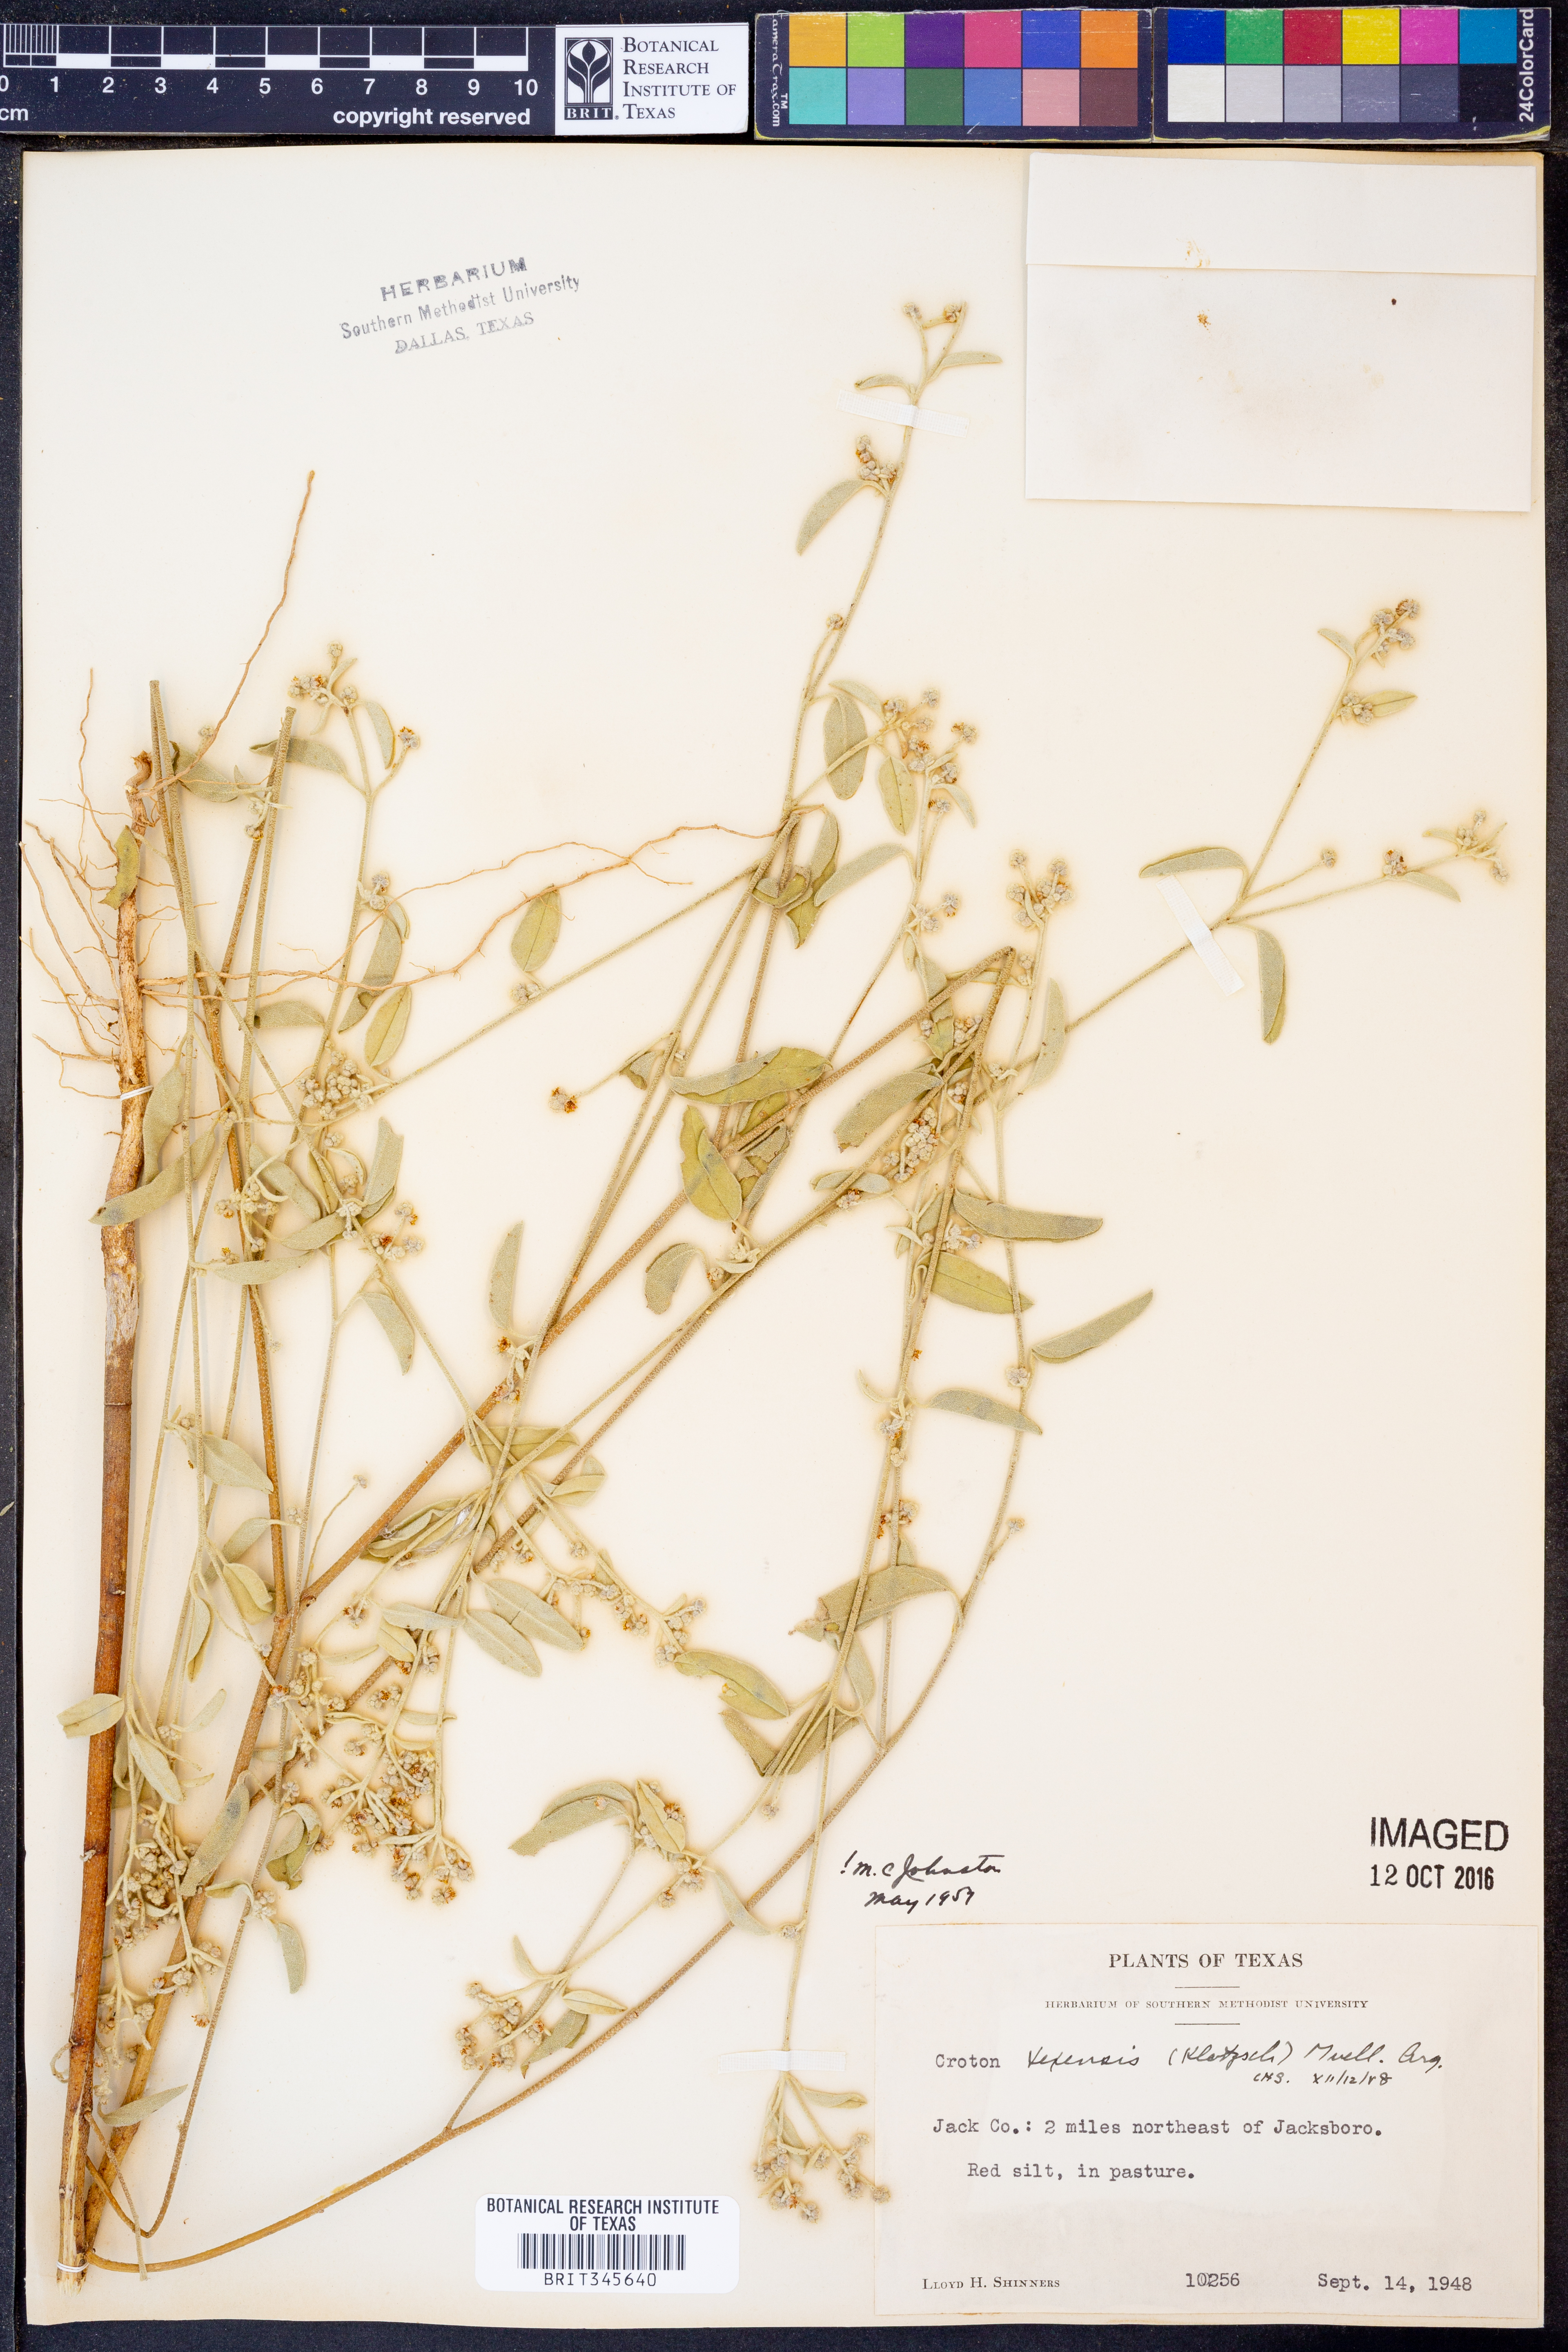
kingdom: Plantae
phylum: Tracheophyta
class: Magnoliopsida
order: Malpighiales
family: Euphorbiaceae
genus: Croton
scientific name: Croton texensis
